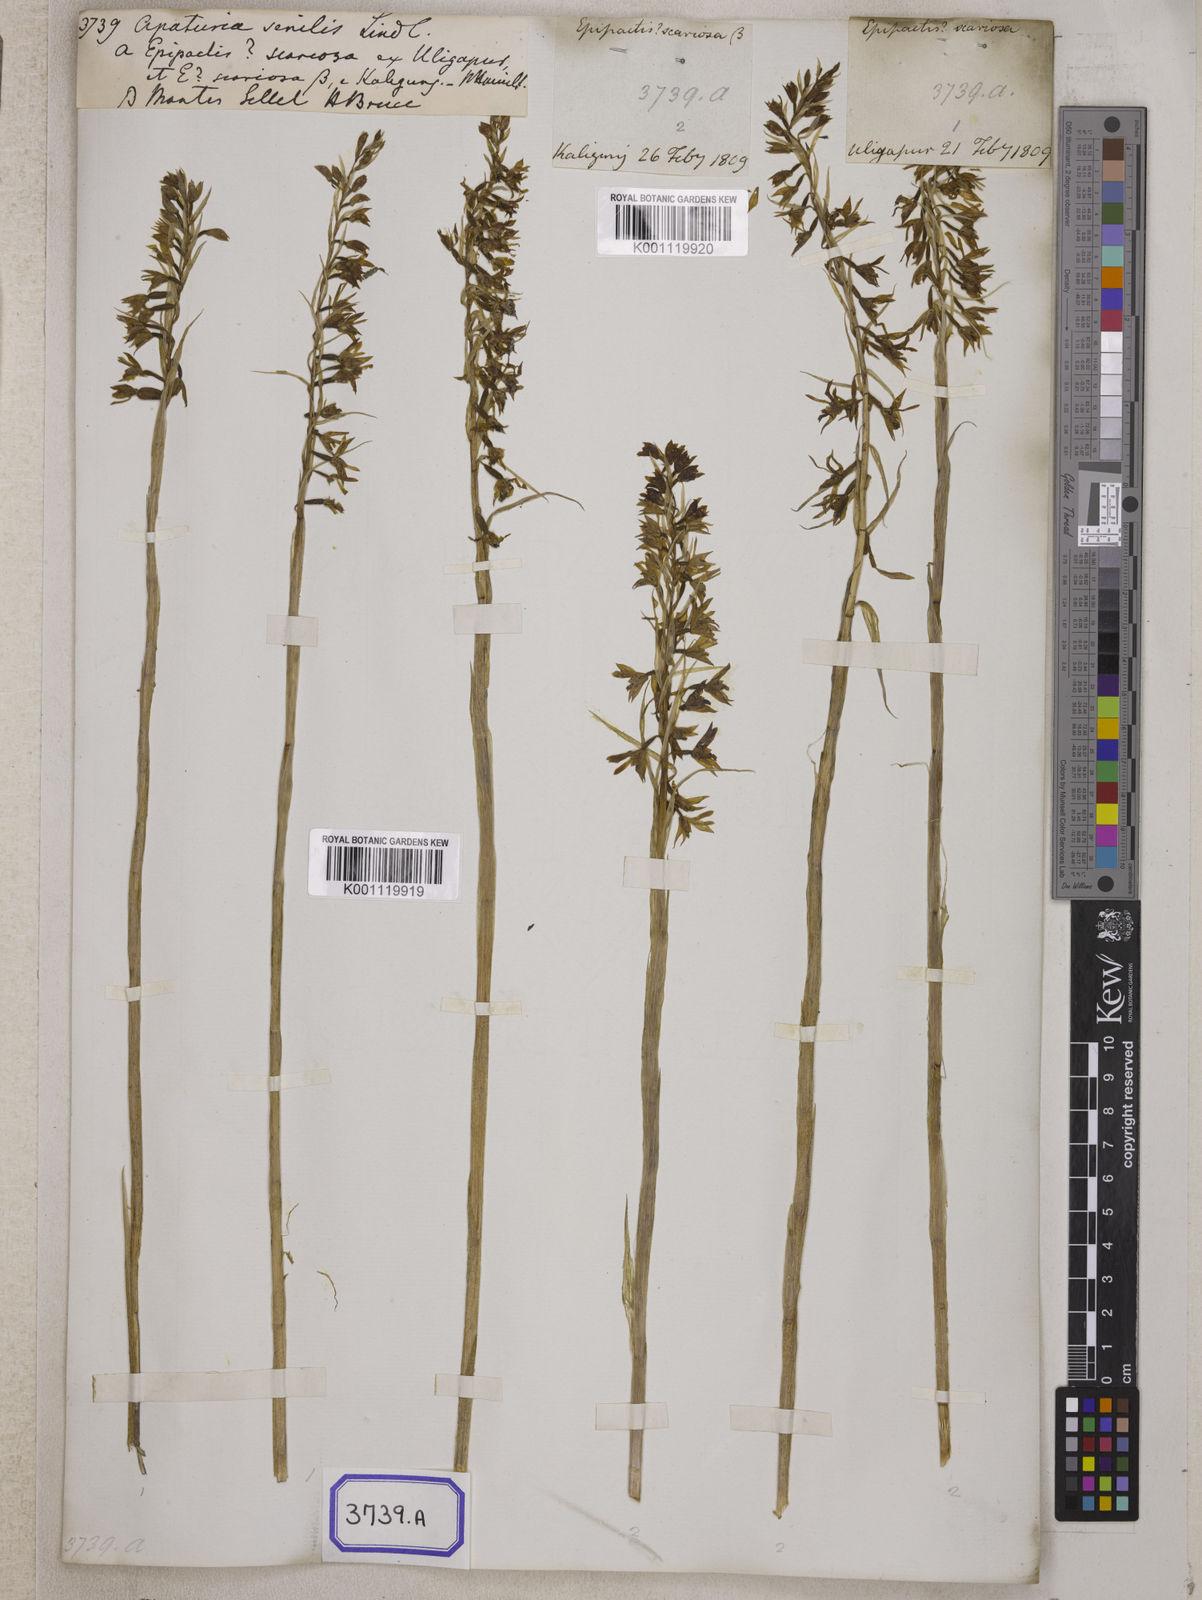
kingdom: Plantae
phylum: Tracheophyta
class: Liliopsida
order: Asparagales
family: Orchidaceae
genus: Pachystoma
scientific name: Pachystoma pubescens
